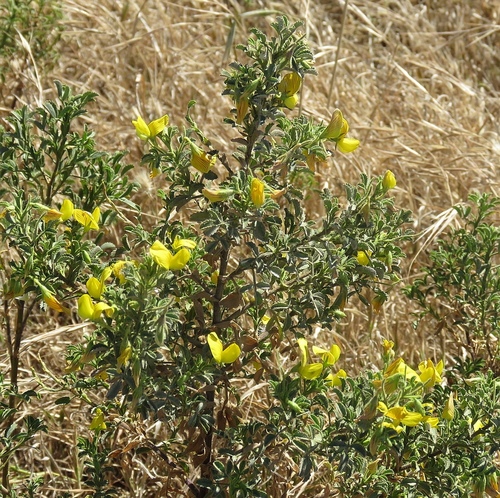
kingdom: Plantae
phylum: Tracheophyta
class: Magnoliopsida
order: Fabales
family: Fabaceae
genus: Ononis
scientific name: Ononis natrix
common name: Yellow restharrow
